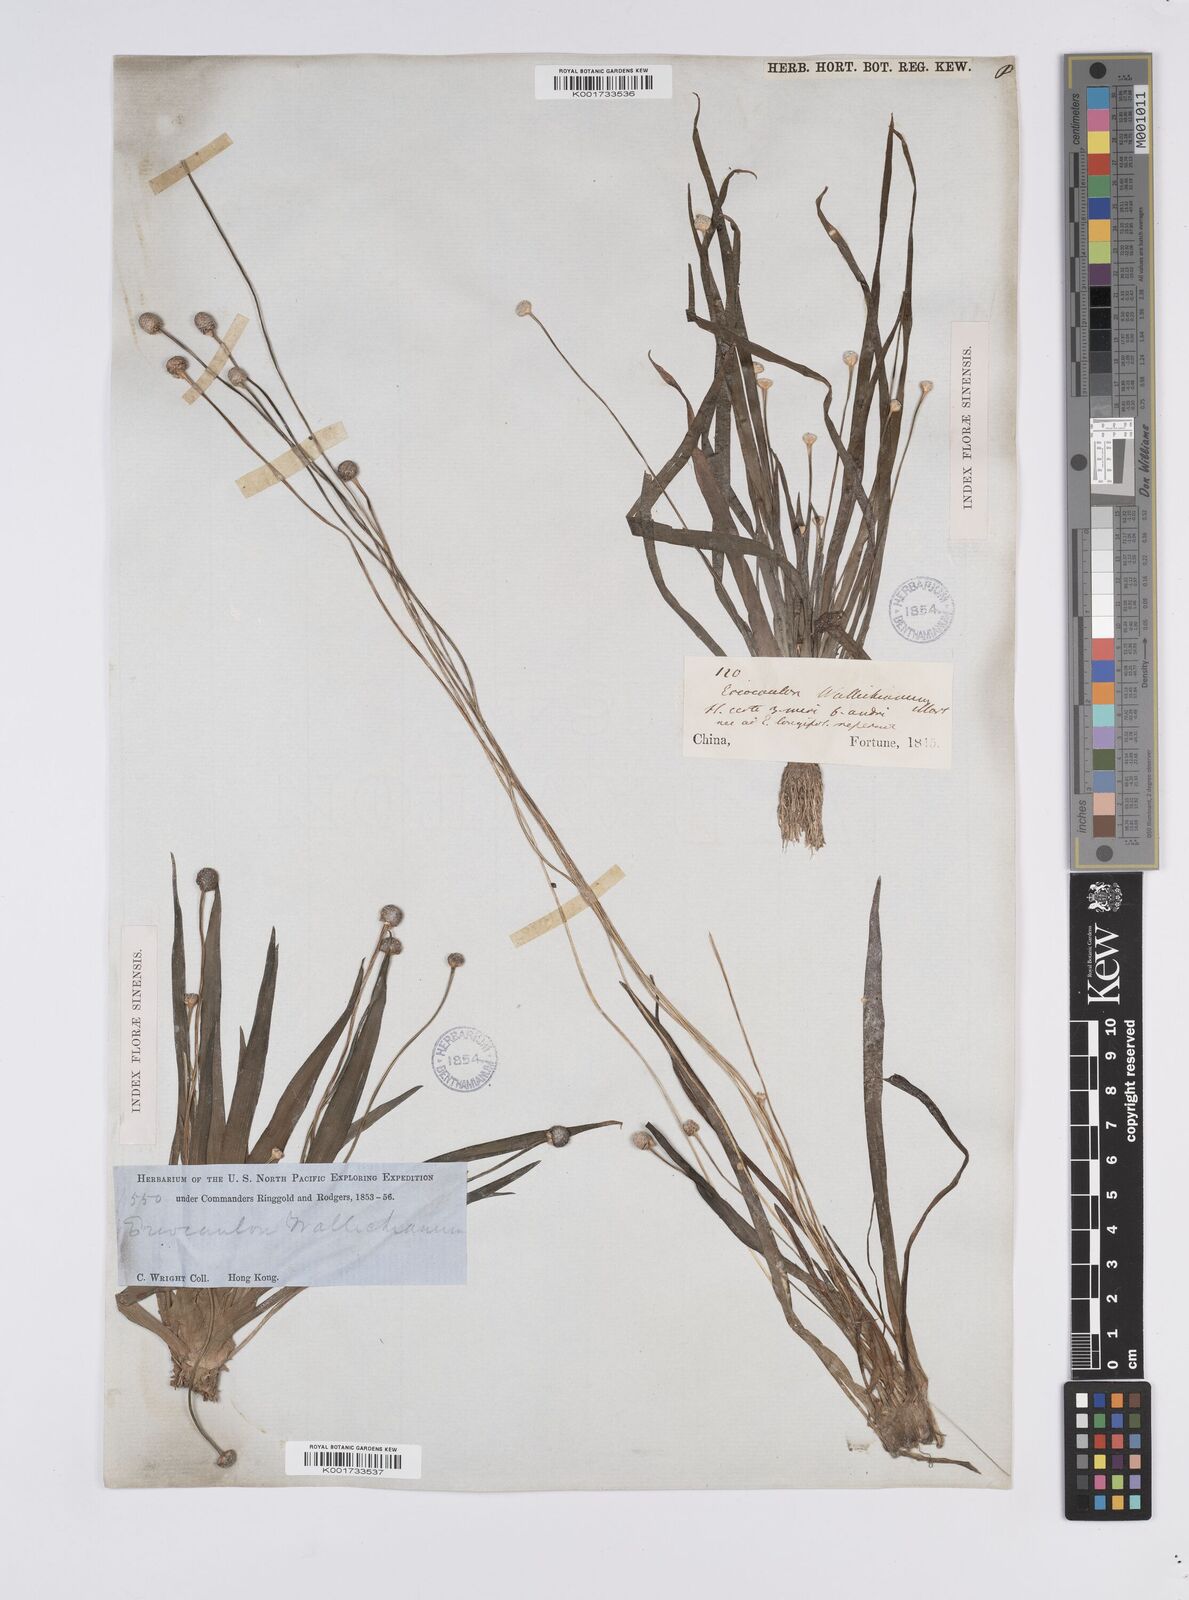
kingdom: Plantae
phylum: Tracheophyta
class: Liliopsida
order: Poales
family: Eriocaulaceae
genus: Eriocaulon
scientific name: Eriocaulon sexangulare
